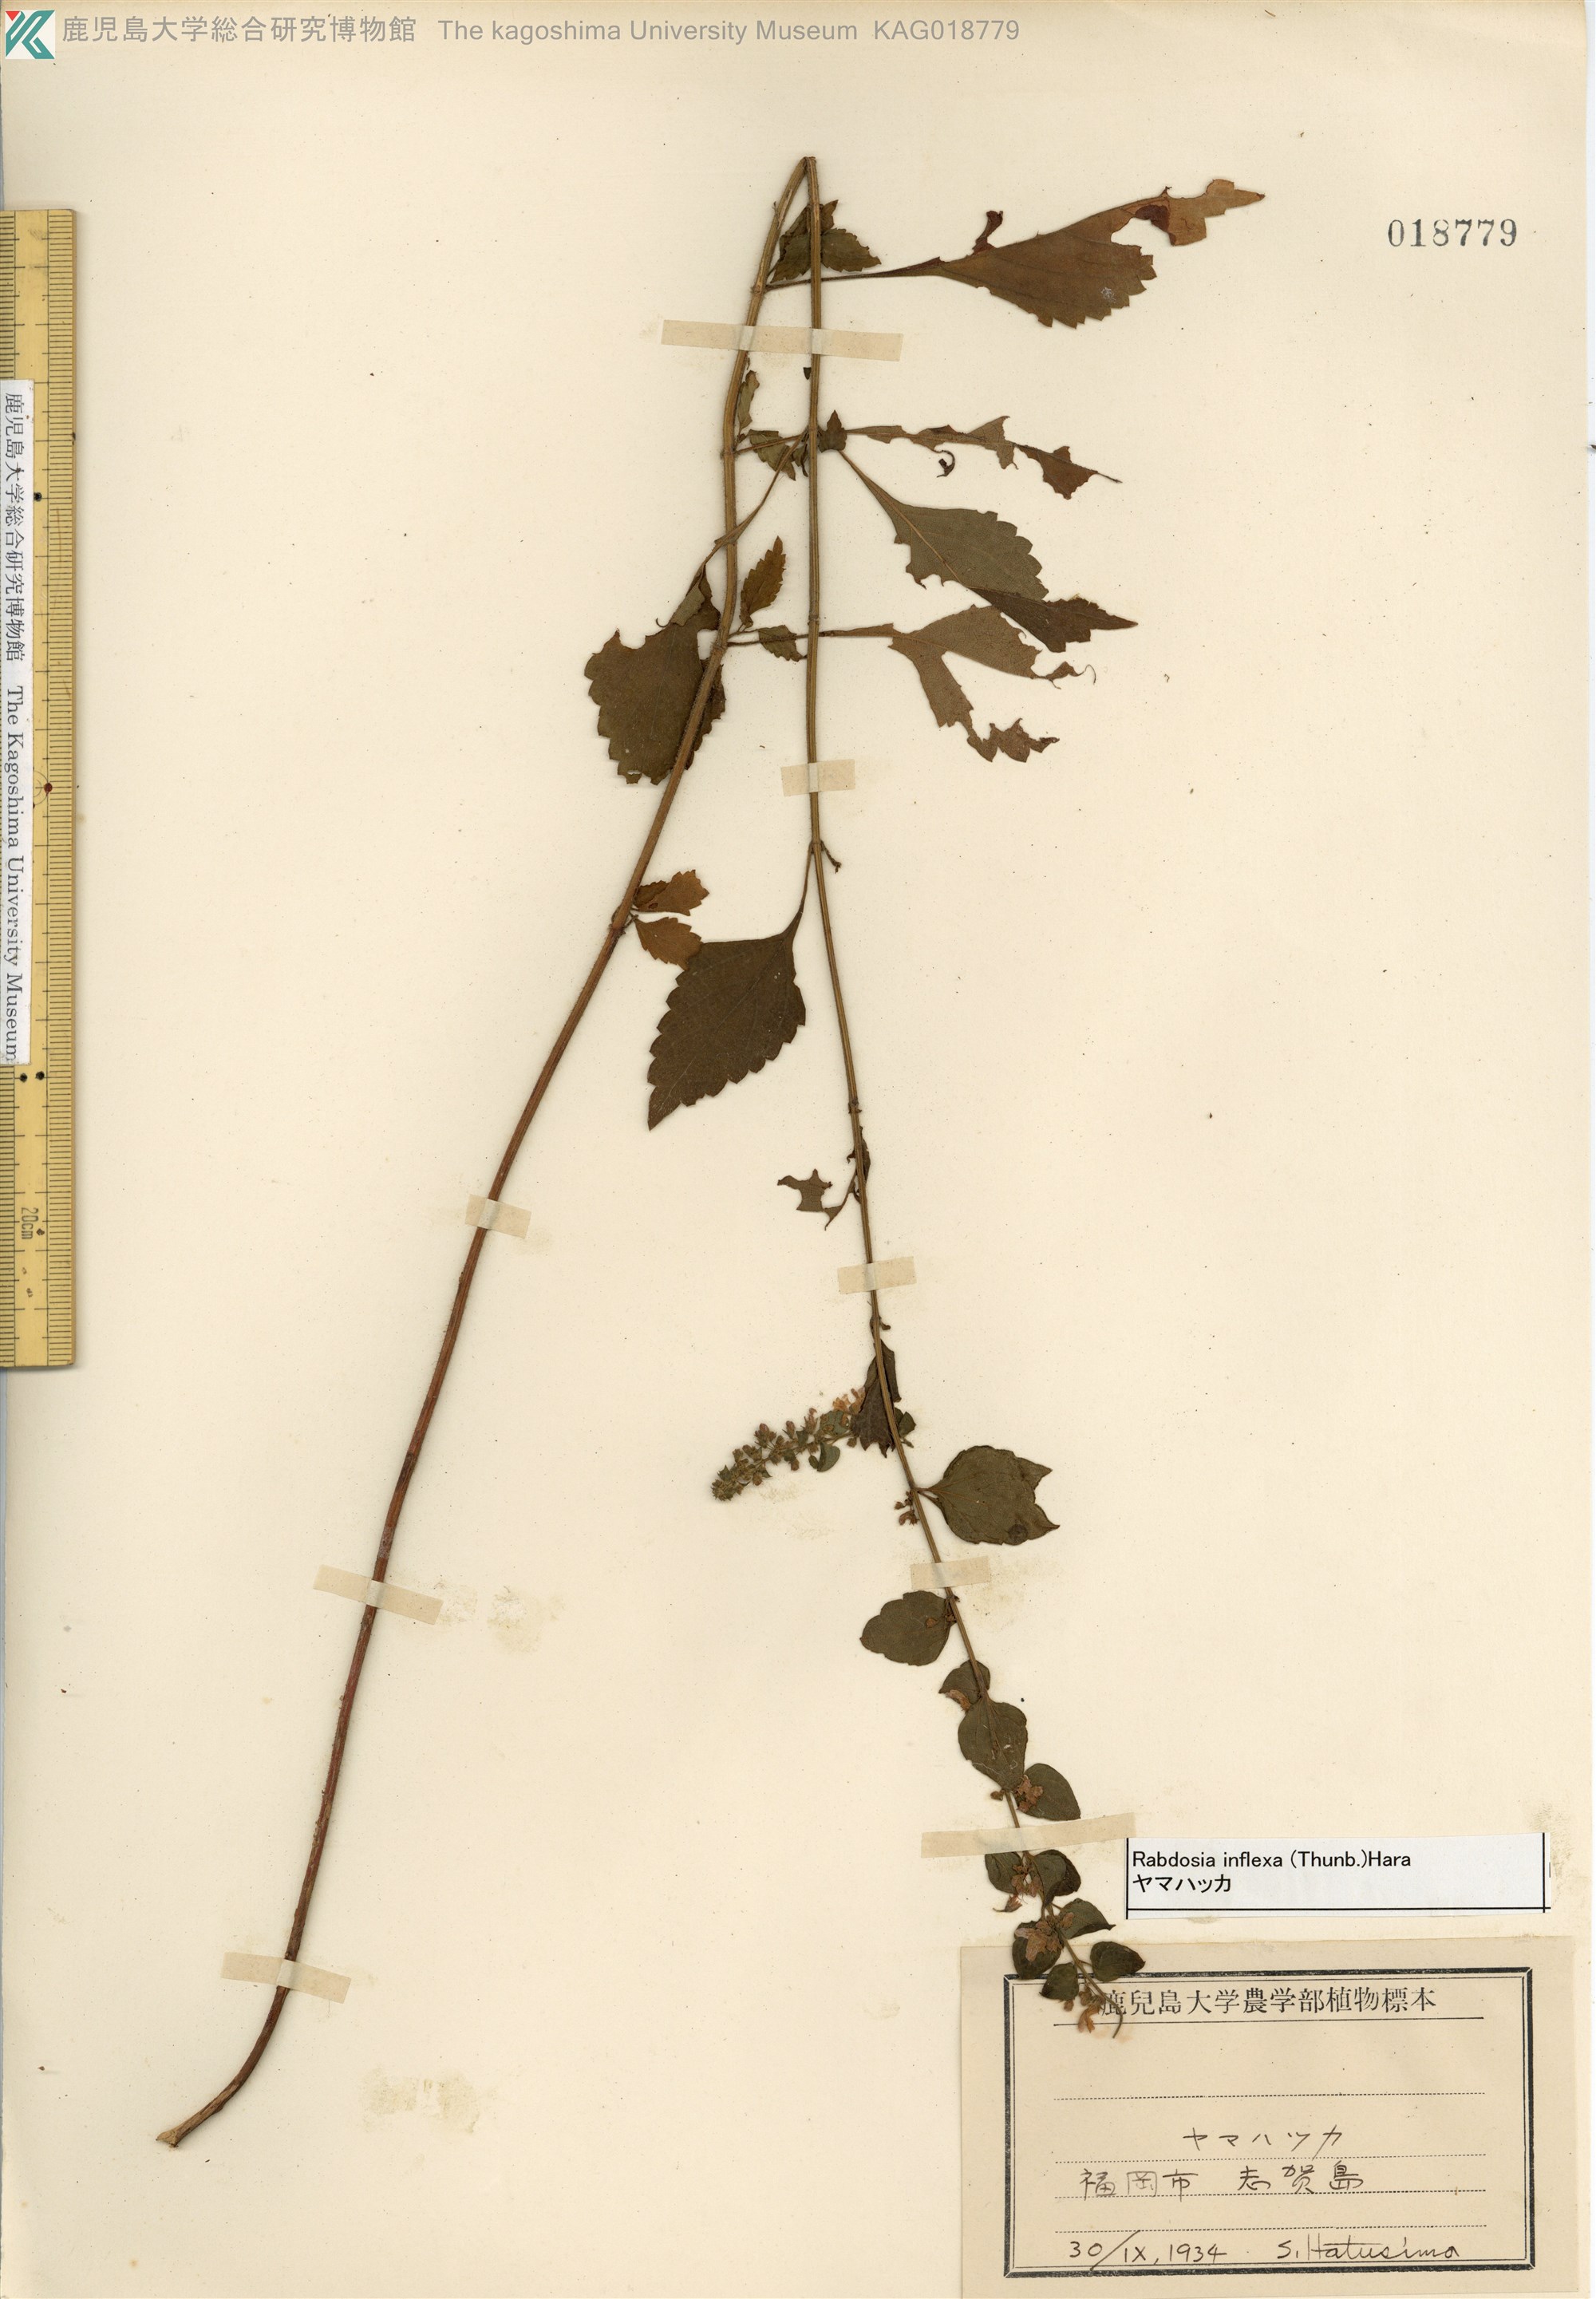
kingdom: Plantae
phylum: Tracheophyta
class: Magnoliopsida
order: Lamiales
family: Lamiaceae
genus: Isodon
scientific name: Isodon inflexus
